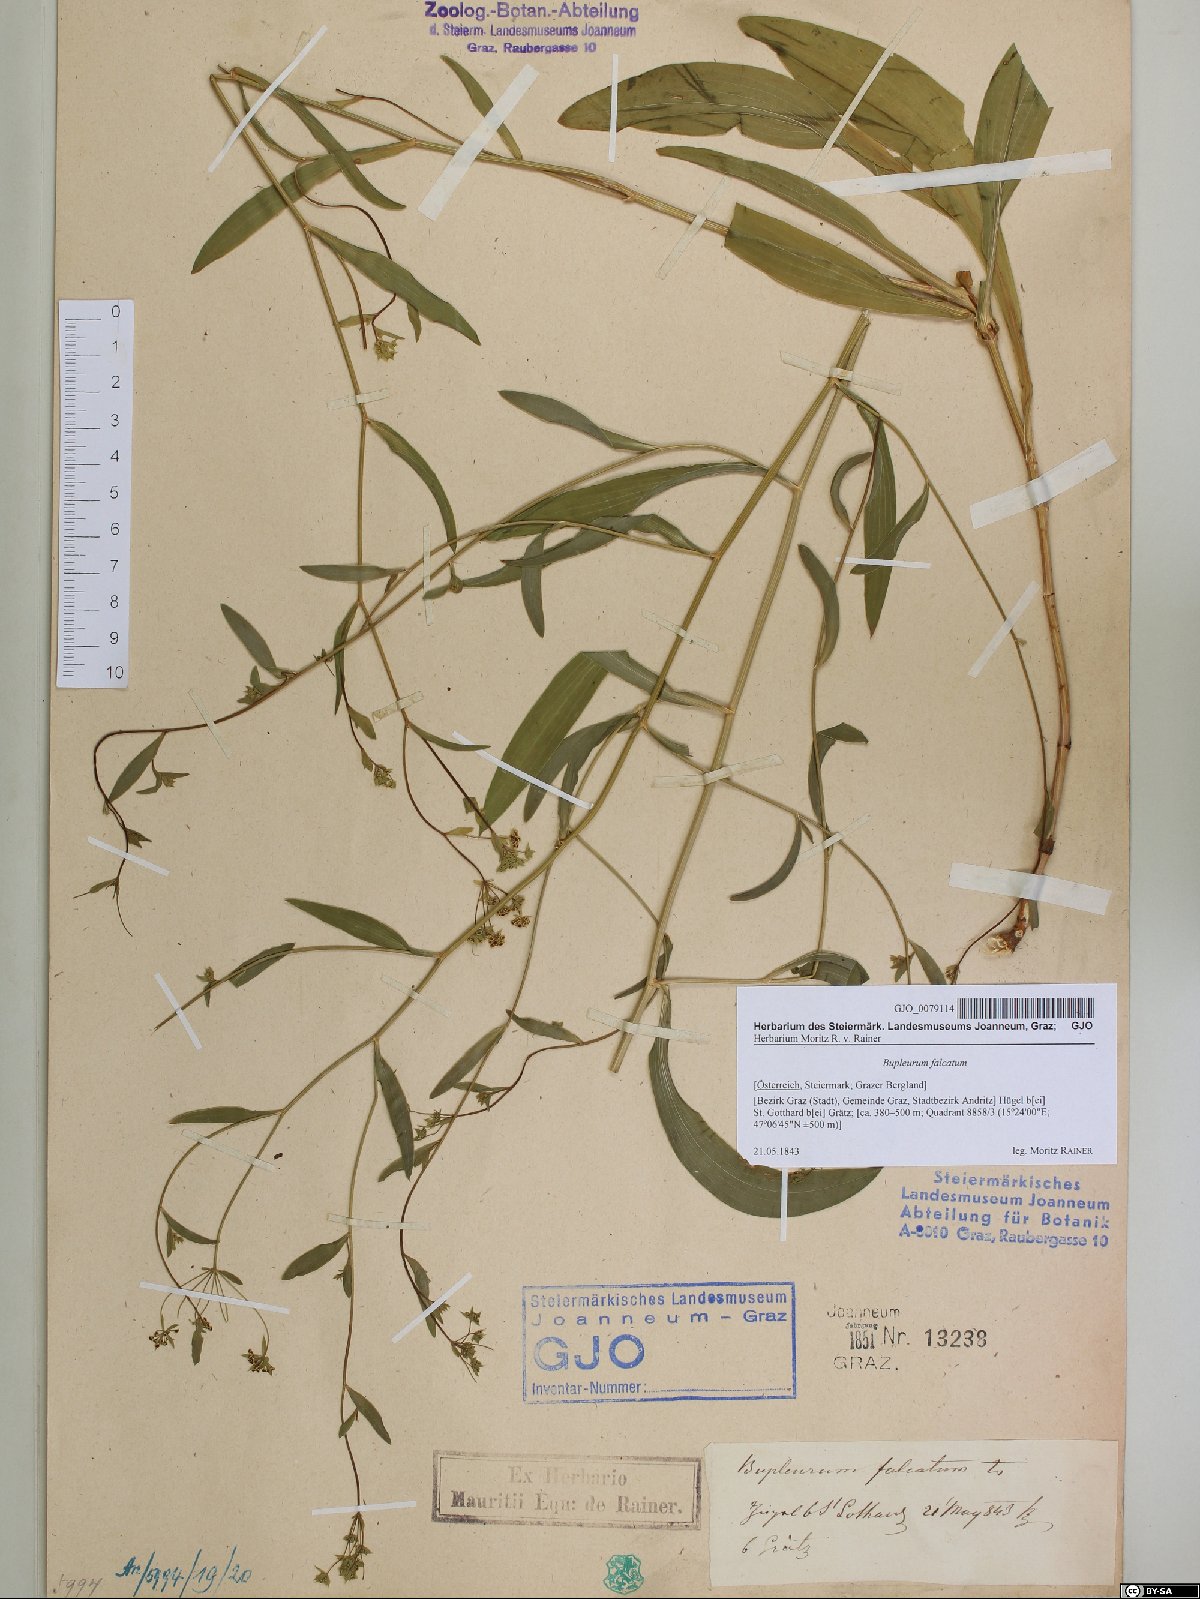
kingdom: Plantae
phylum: Tracheophyta
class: Magnoliopsida
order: Apiales
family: Apiaceae
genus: Bupleurum
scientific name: Bupleurum falcatum
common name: Sickle-leaved hare's-ear
